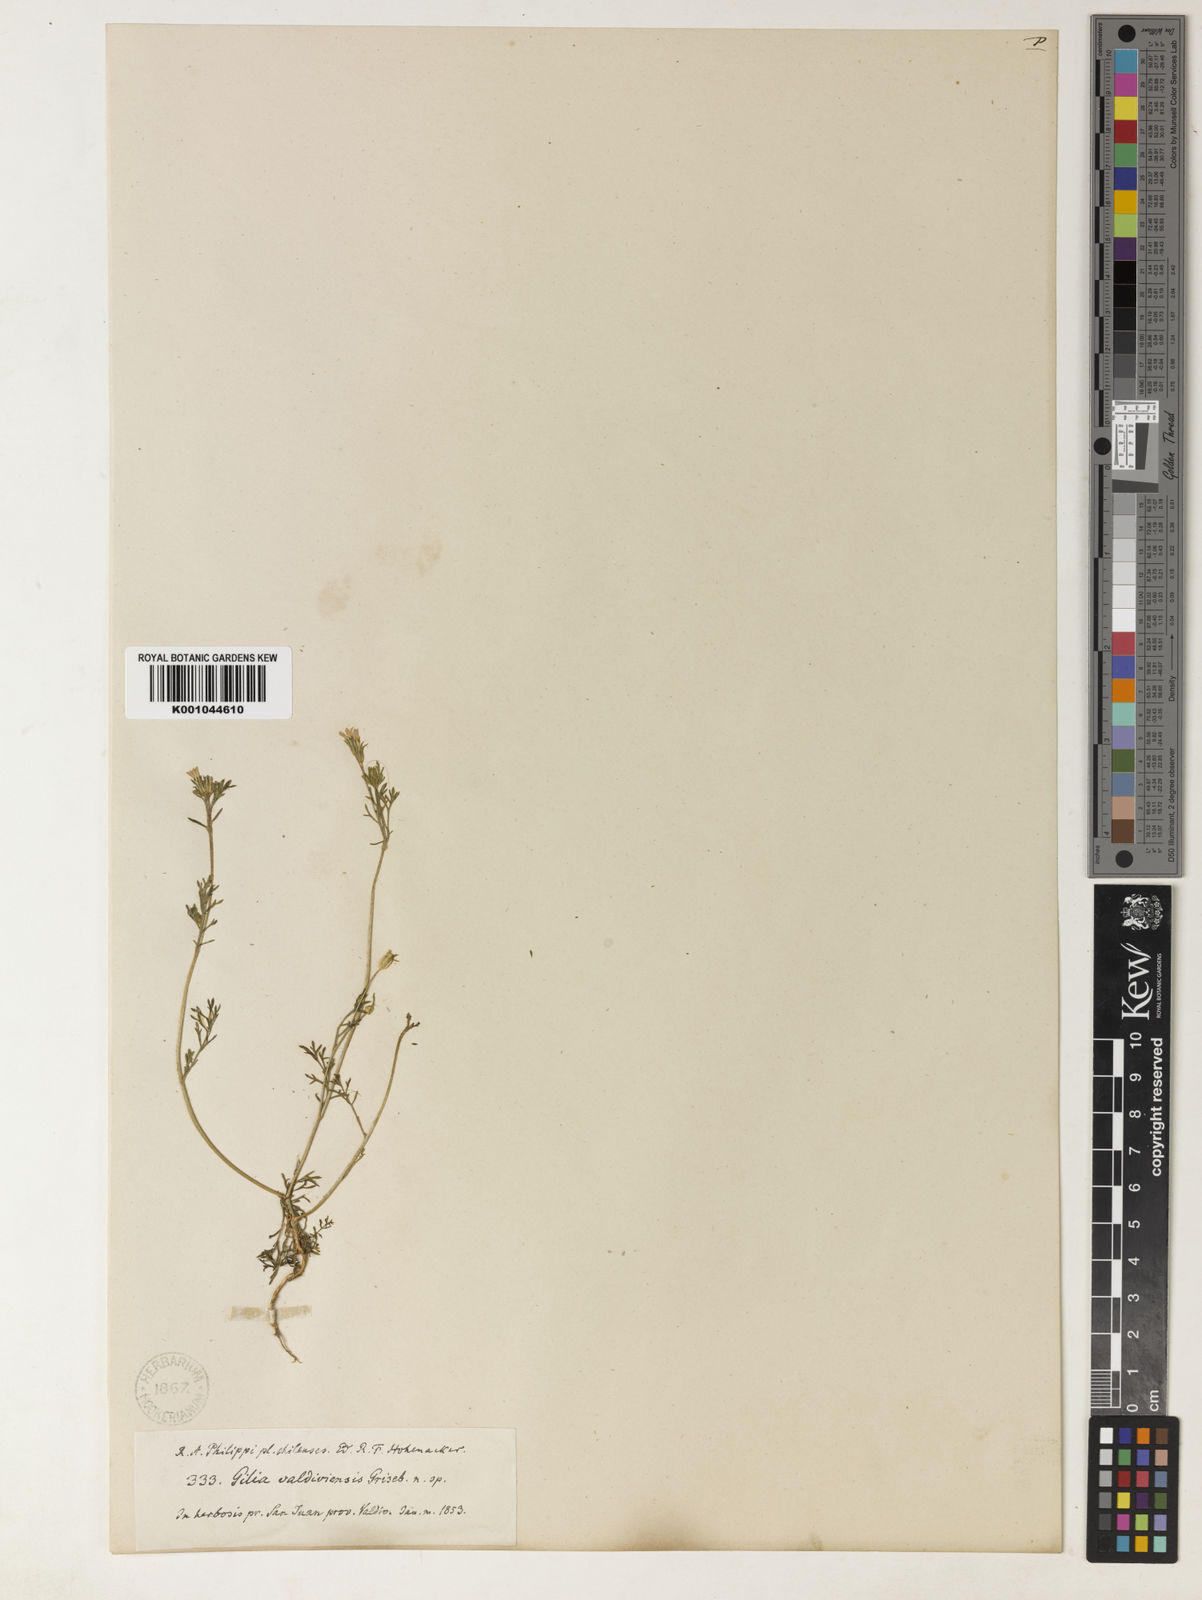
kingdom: Plantae
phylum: Tracheophyta
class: Magnoliopsida
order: Ericales
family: Polemoniaceae
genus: Gilia
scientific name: Gilia laciniata
